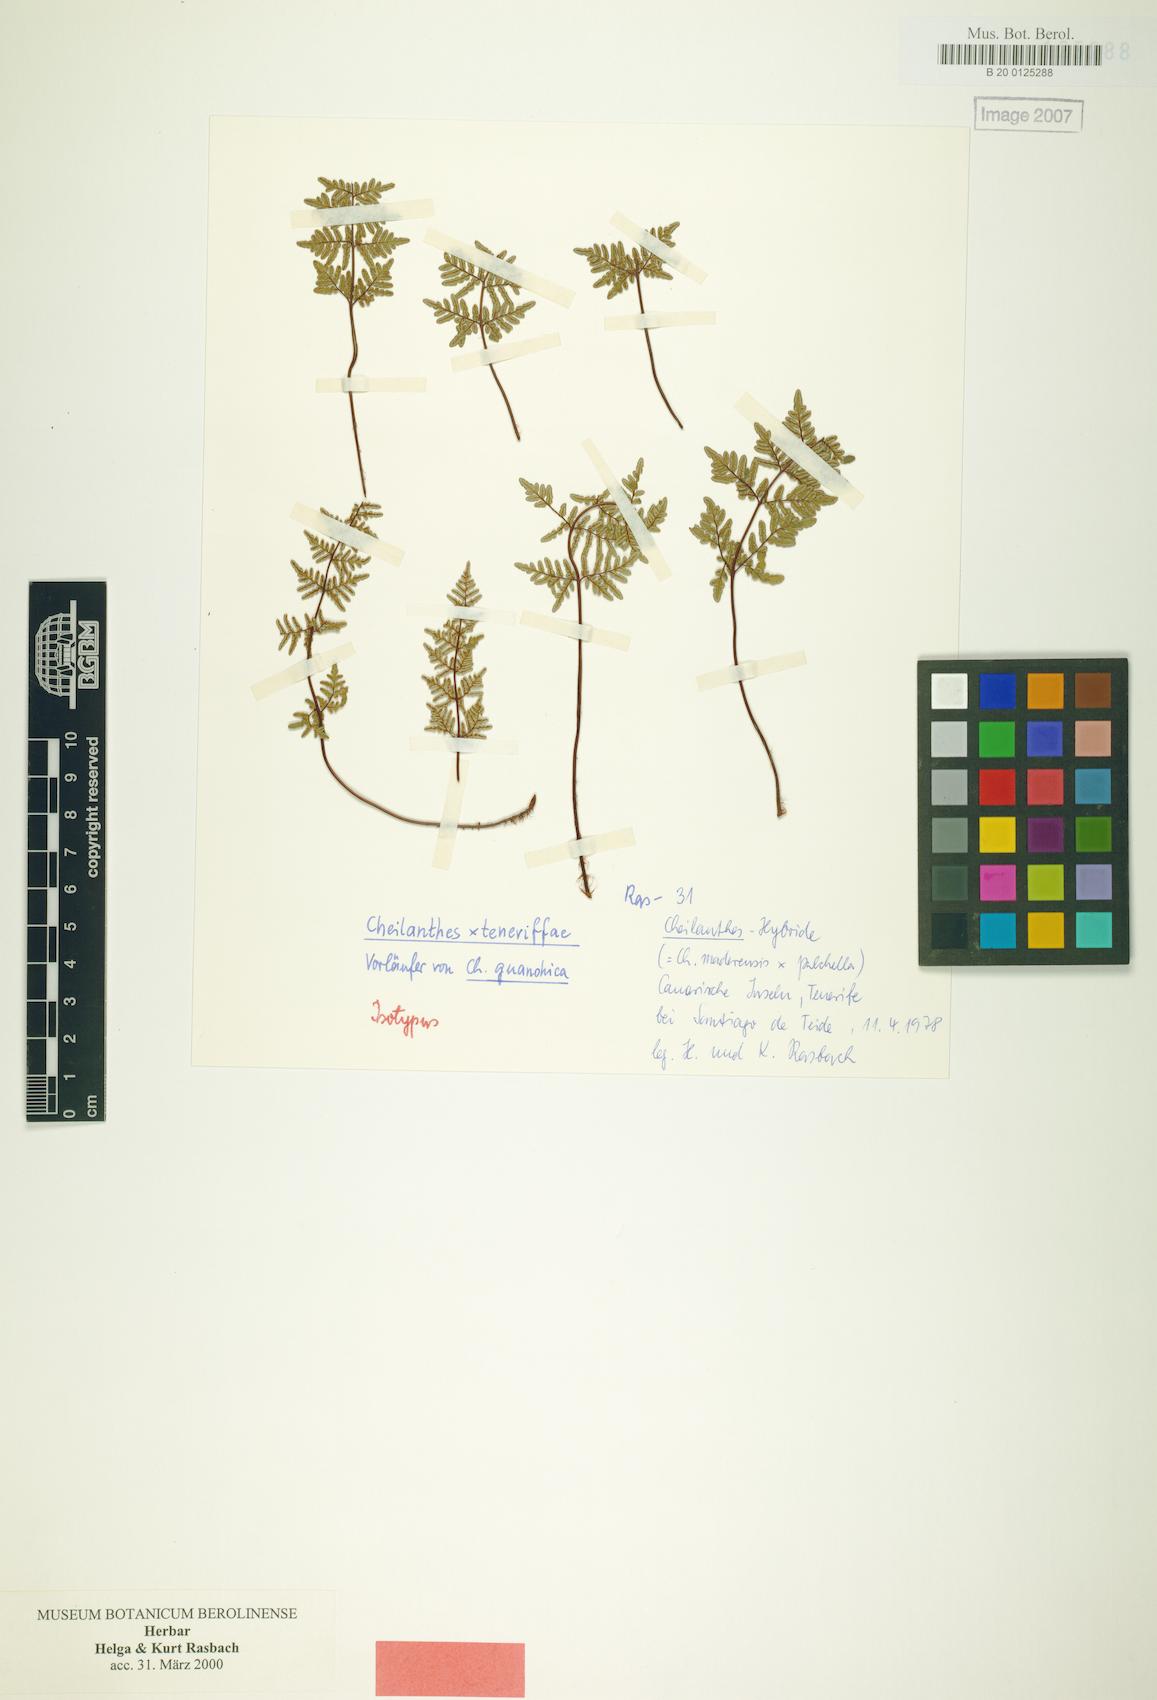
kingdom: Plantae
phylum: Tracheophyta
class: Polypodiopsida
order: Polypodiales
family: Pteridaceae
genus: Oeosporangium
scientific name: Oeosporangium teneriffae
